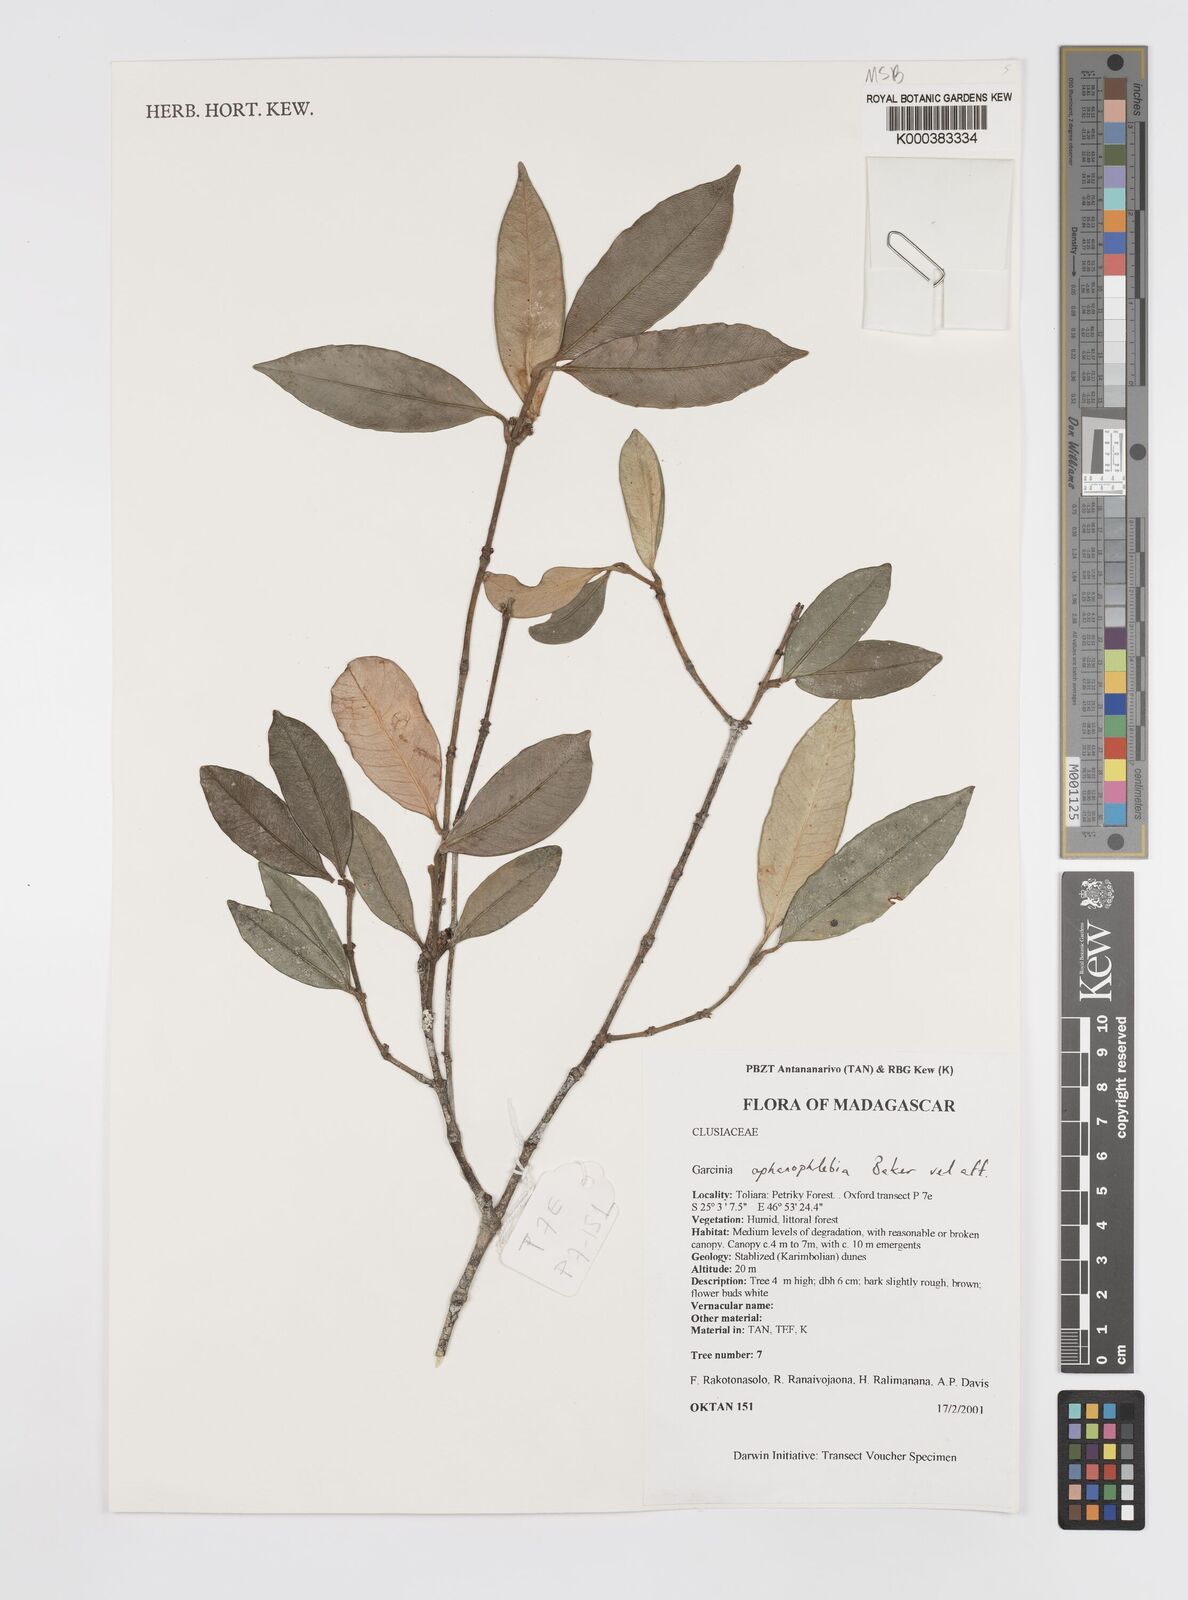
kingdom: Plantae
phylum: Tracheophyta
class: Magnoliopsida
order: Malpighiales
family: Clusiaceae
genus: Garcinia
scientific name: Garcinia
